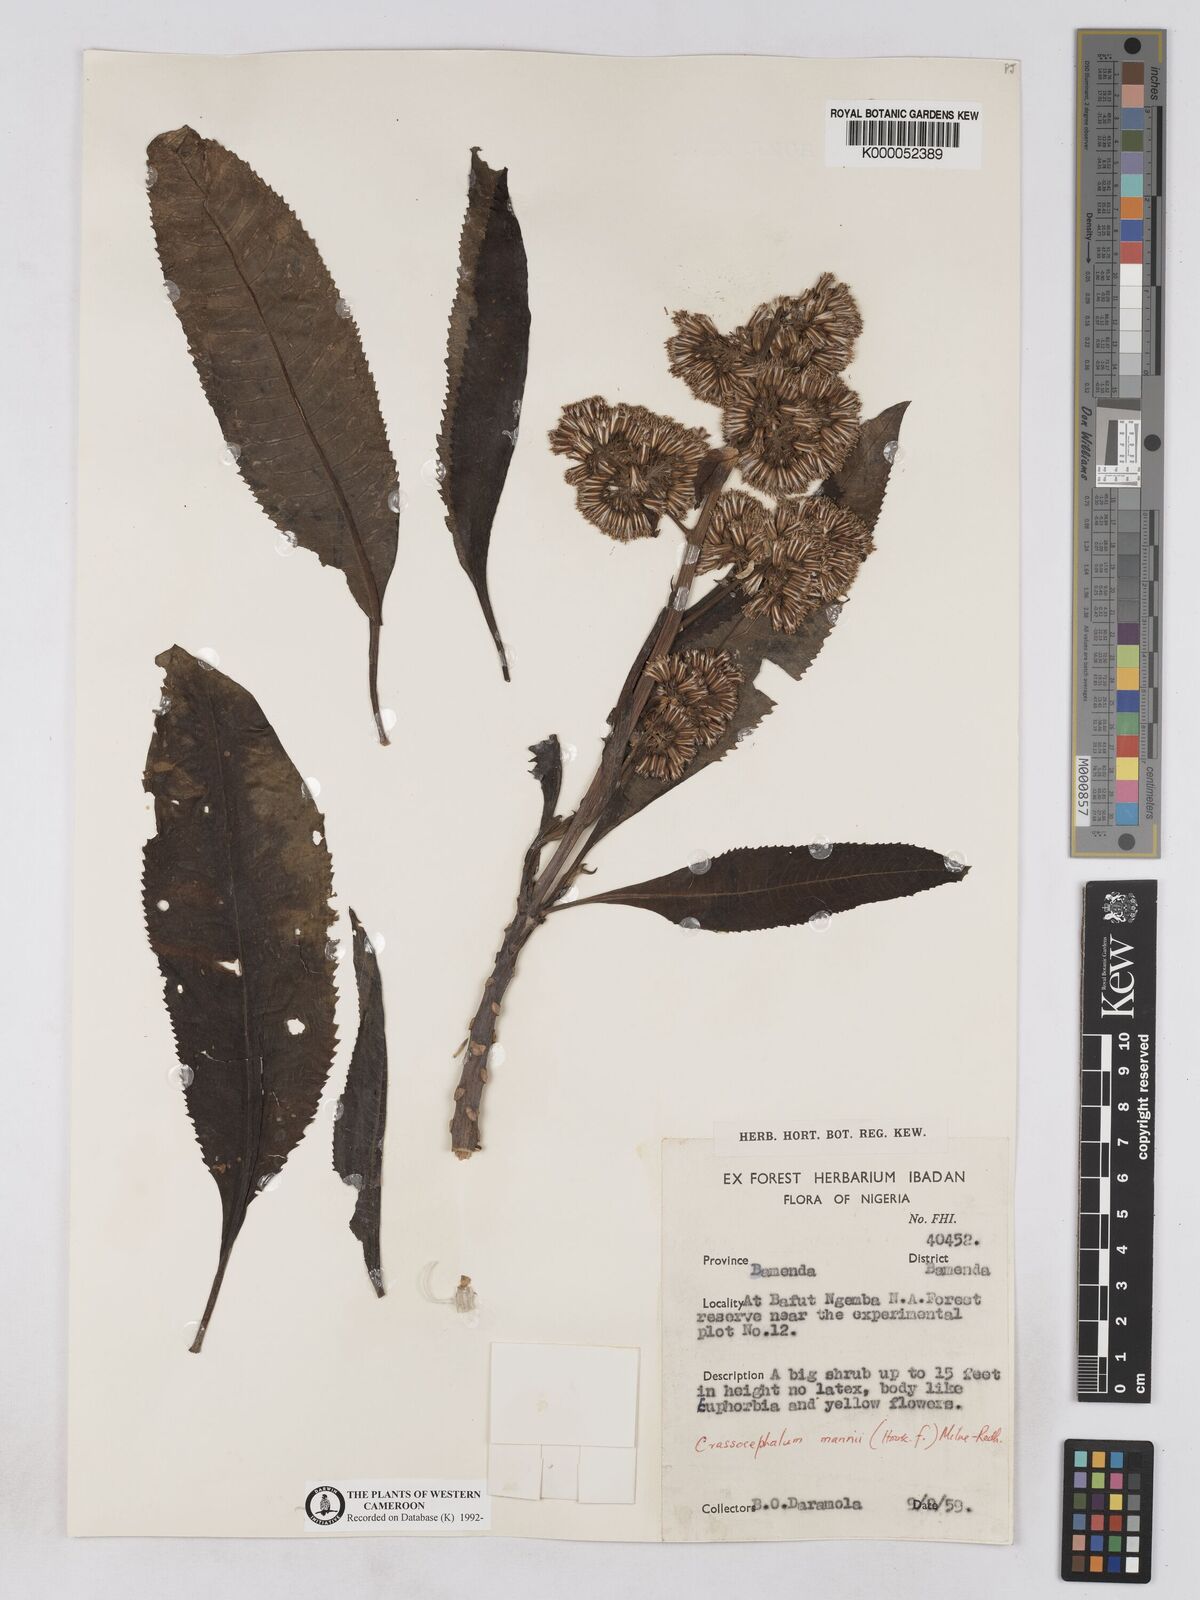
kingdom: Plantae
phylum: Tracheophyta
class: Magnoliopsida
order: Asterales
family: Asteraceae
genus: Solanecio
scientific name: Solanecio mannii
